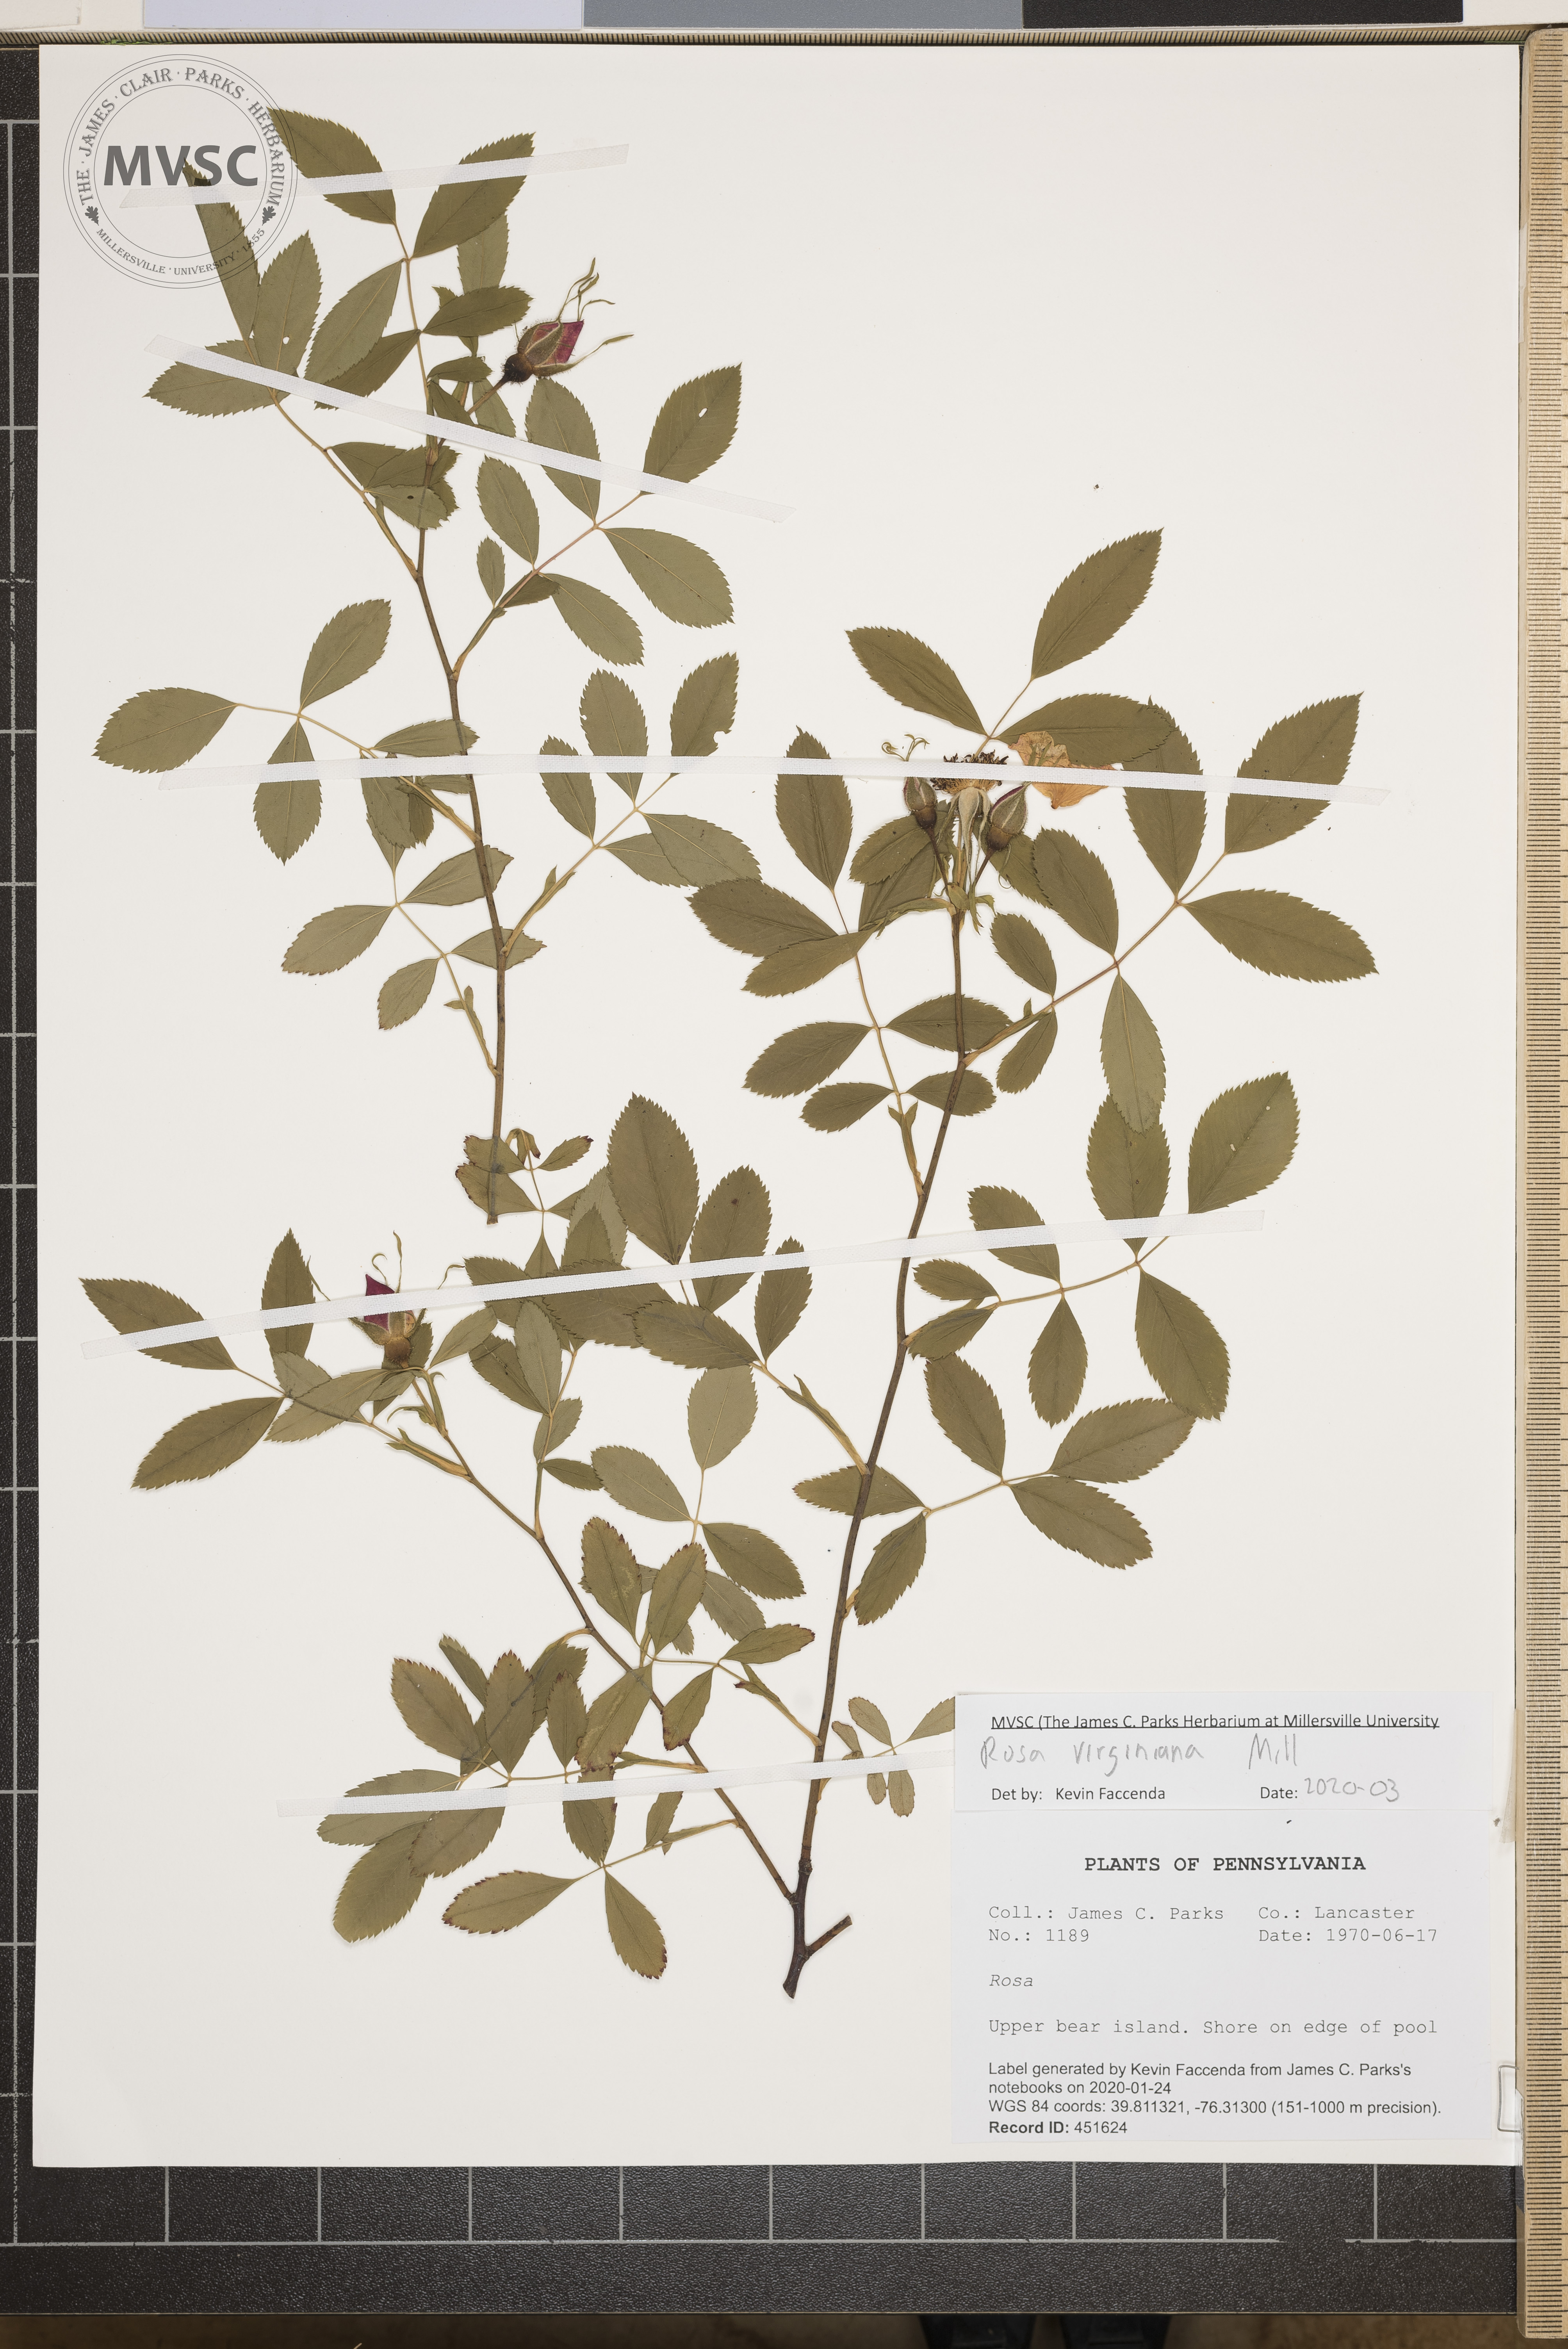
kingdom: Plantae
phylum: Tracheophyta
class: Magnoliopsida
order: Rosales
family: Rosaceae
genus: Rosa
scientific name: Rosa carolina
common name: Pasture rose
